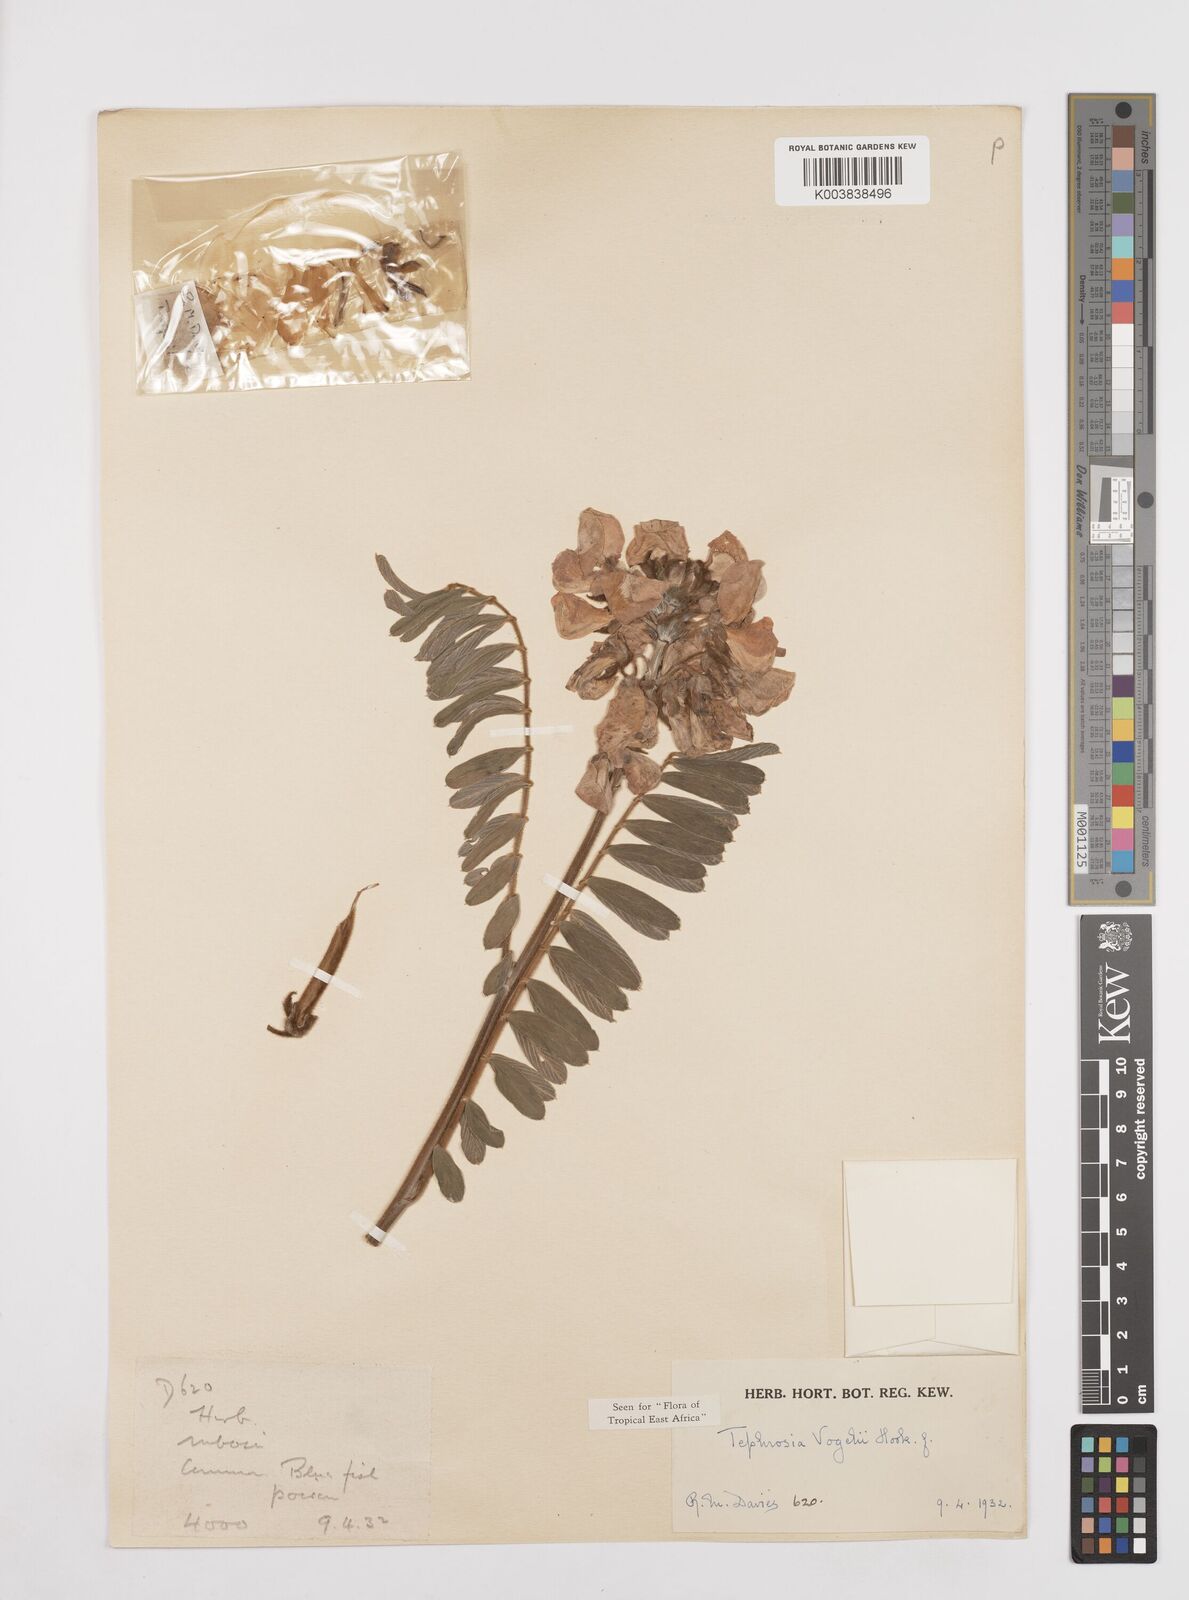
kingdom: Plantae
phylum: Tracheophyta
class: Magnoliopsida
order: Fabales
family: Fabaceae
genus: Tephrosia
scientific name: Tephrosia vogelii
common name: Vogel tephrosia
